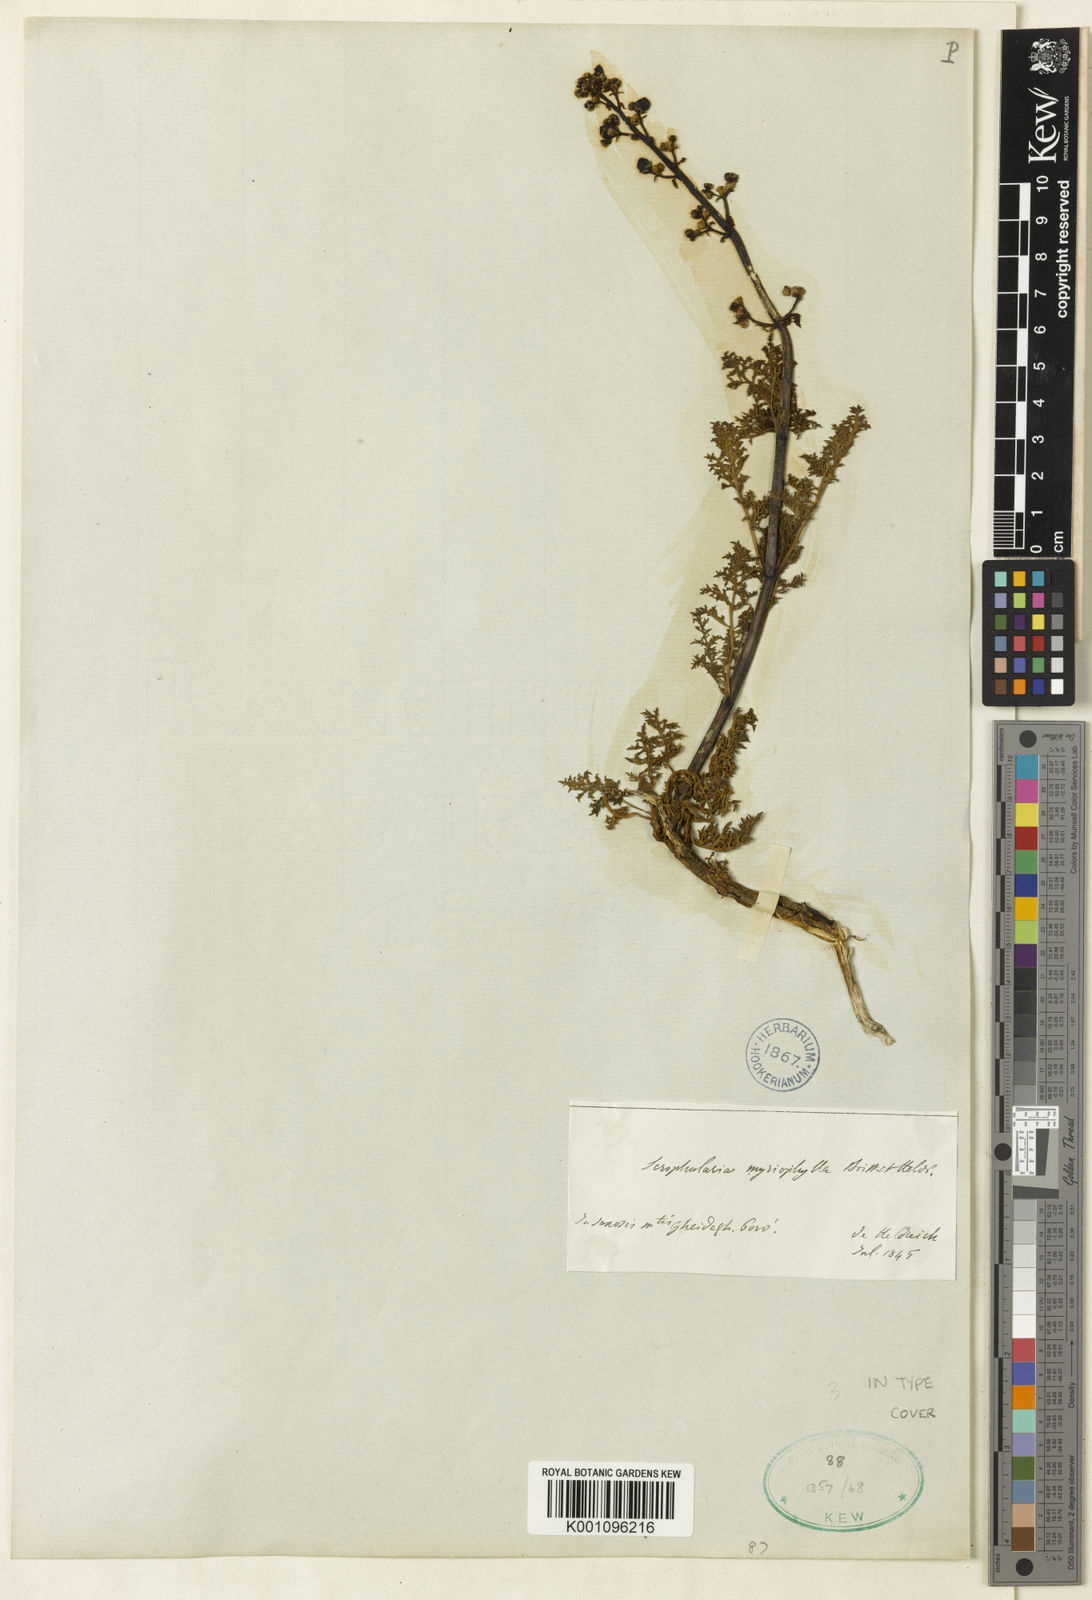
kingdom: Plantae
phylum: Tracheophyta
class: Magnoliopsida
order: Lamiales
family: Scrophulariaceae
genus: Scrophularia
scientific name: Scrophularia myriophylla
